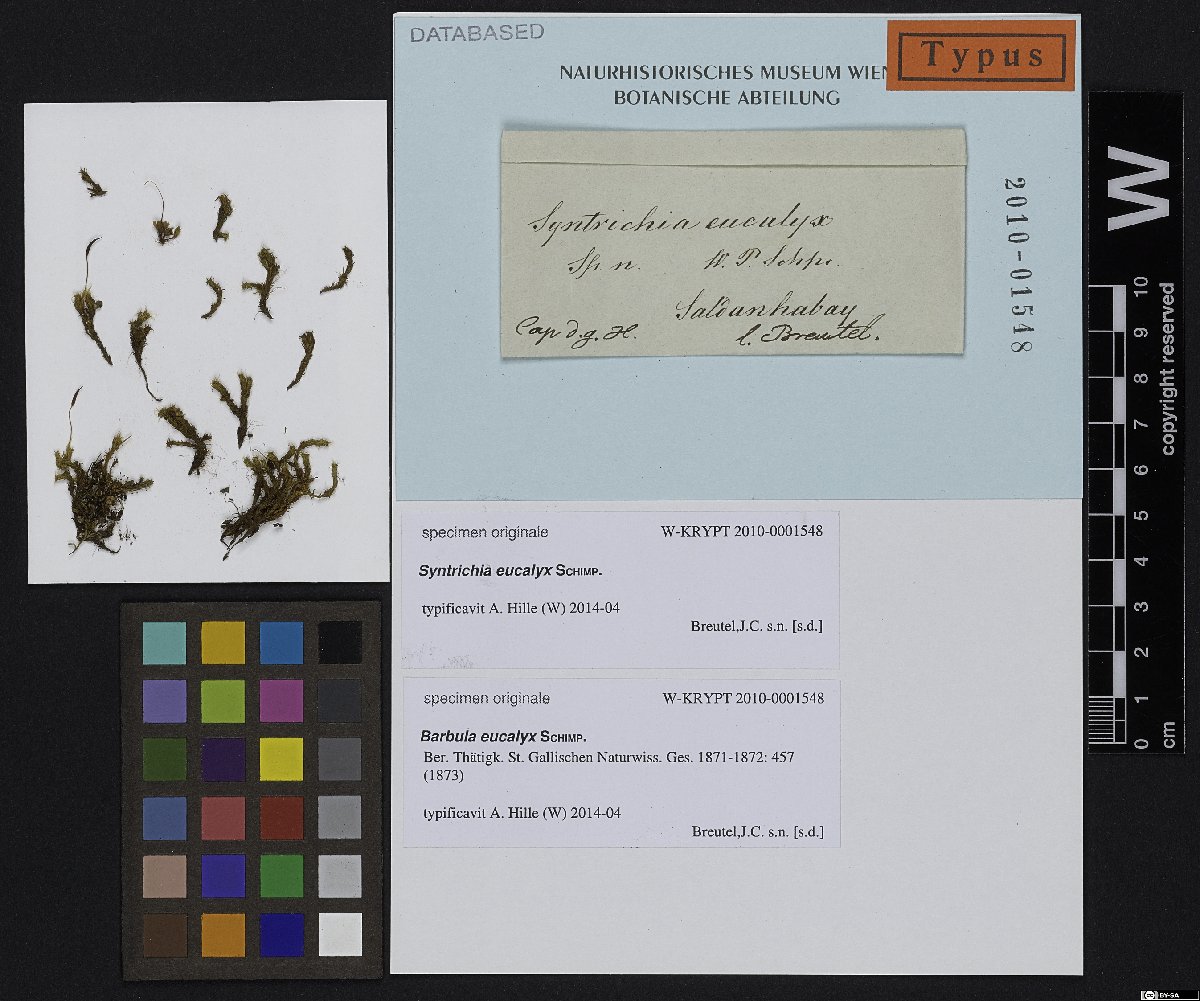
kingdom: Plantae
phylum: Bryophyta
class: Bryopsida
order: Pottiales
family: Pottiaceae
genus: Barbula
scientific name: Barbula
